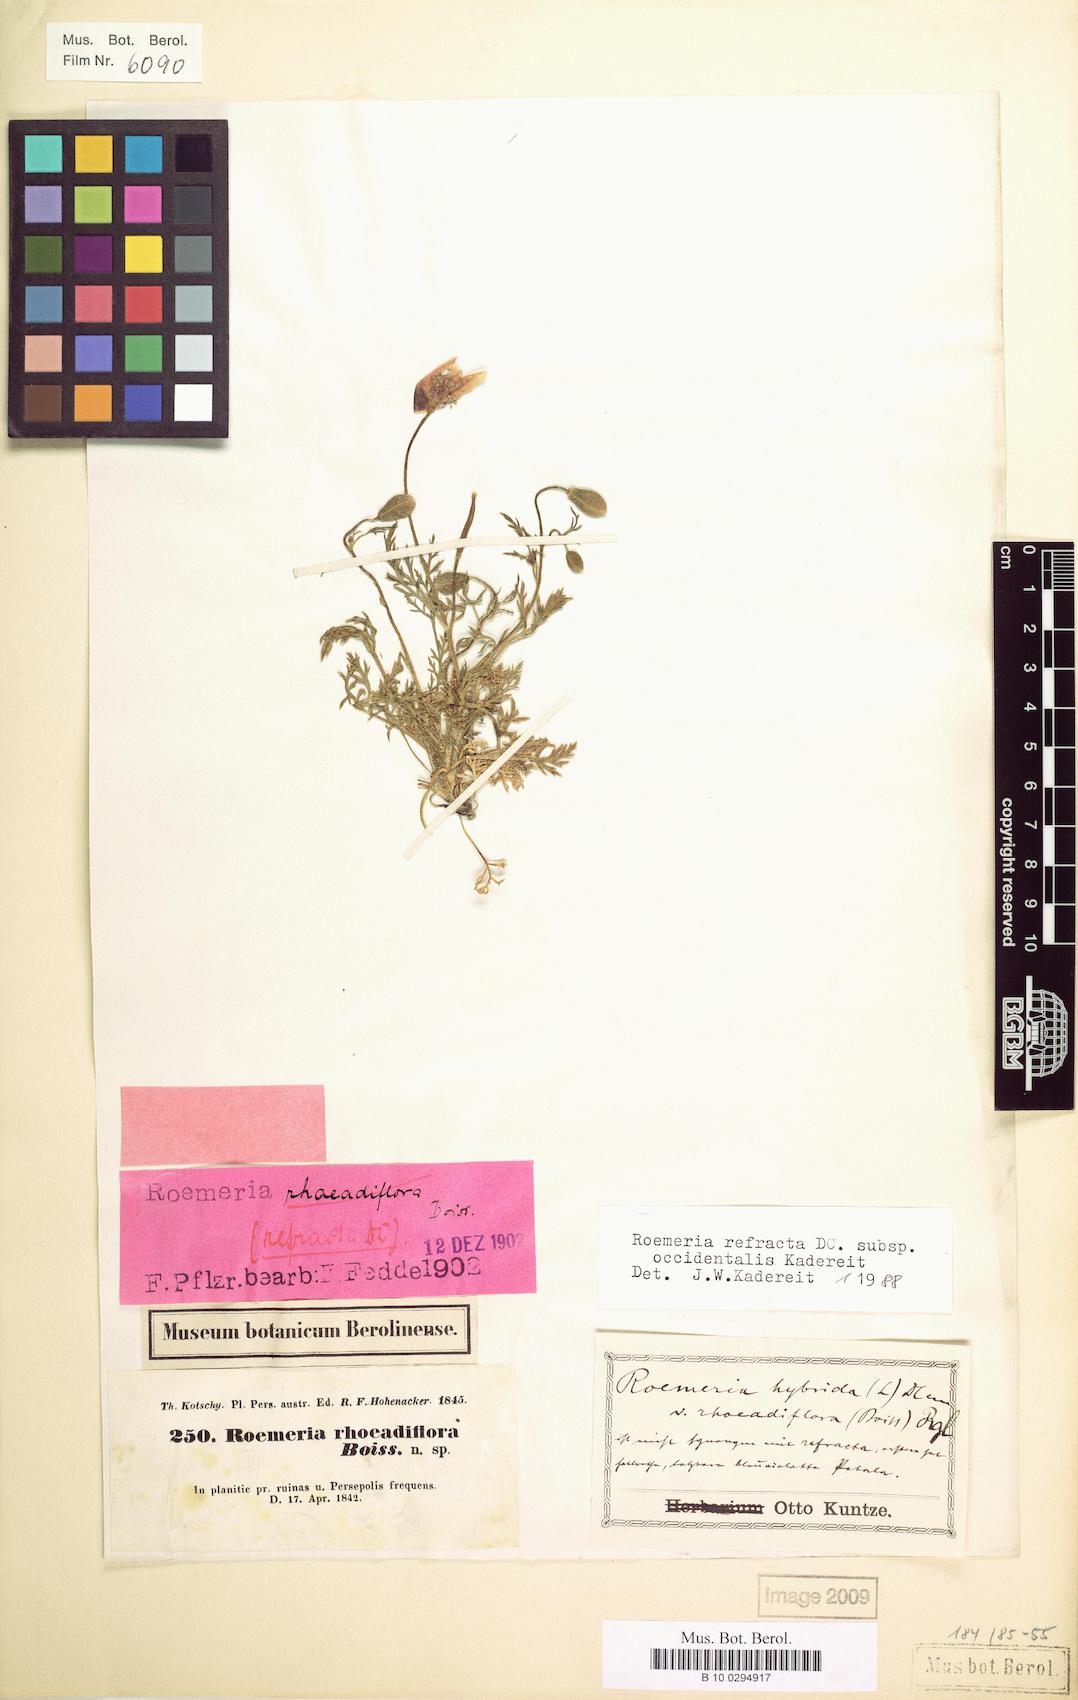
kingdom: Plantae
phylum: Tracheophyta
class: Magnoliopsida
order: Ranunculales
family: Papaveraceae
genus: Roemeria
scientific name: Roemeria refracta
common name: Spotted asian poppy
